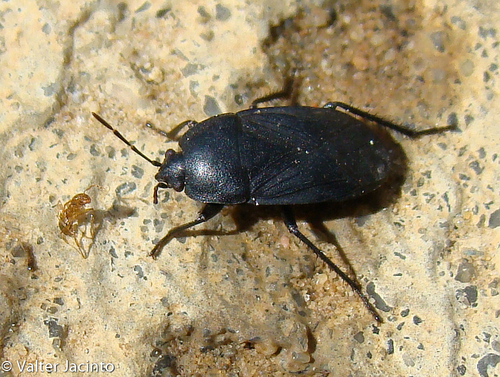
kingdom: Animalia
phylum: Arthropoda
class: Insecta
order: Hemiptera
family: Rhyparochromidae
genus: Aellopus
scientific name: Aellopus atratus
